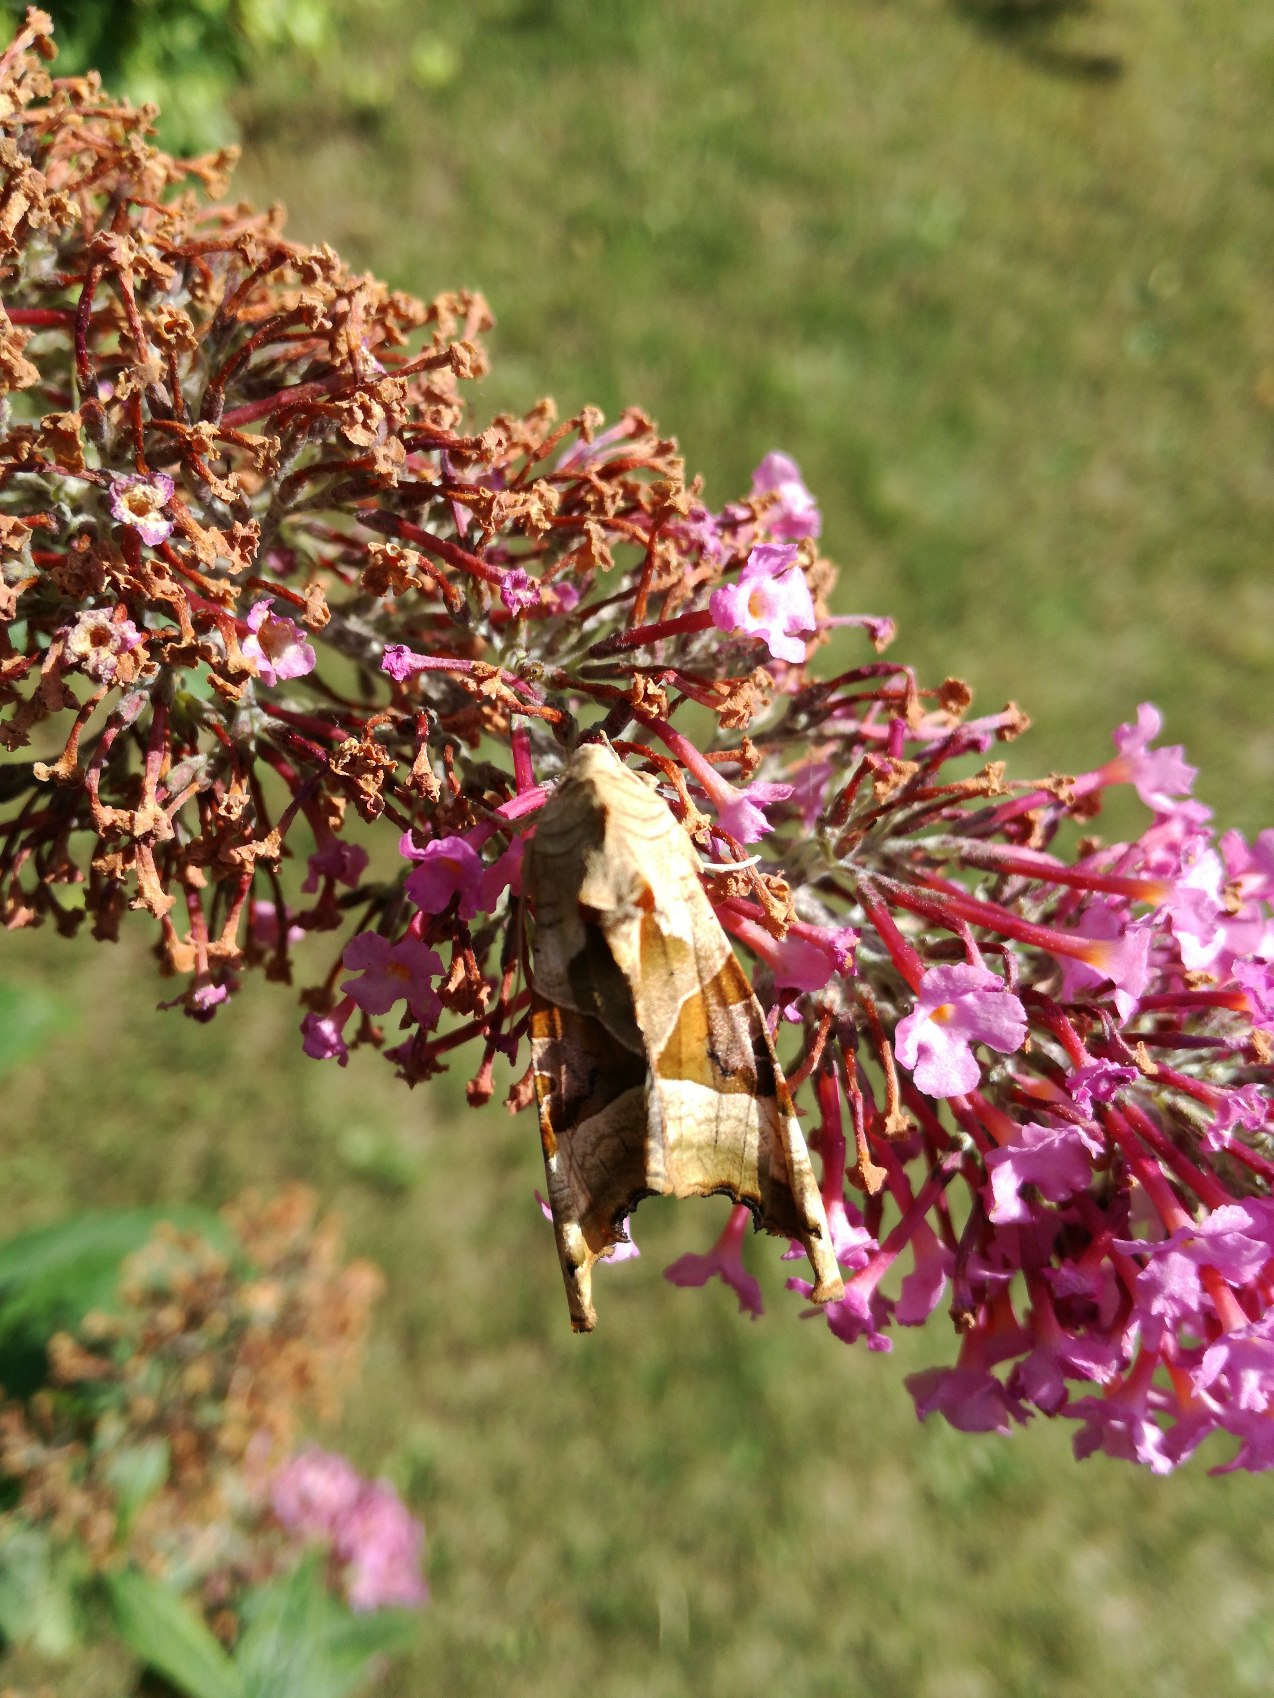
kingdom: Animalia
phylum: Arthropoda
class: Insecta
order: Lepidoptera
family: Noctuidae
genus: Phlogophora
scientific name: Phlogophora meticulosa
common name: Agatugle
